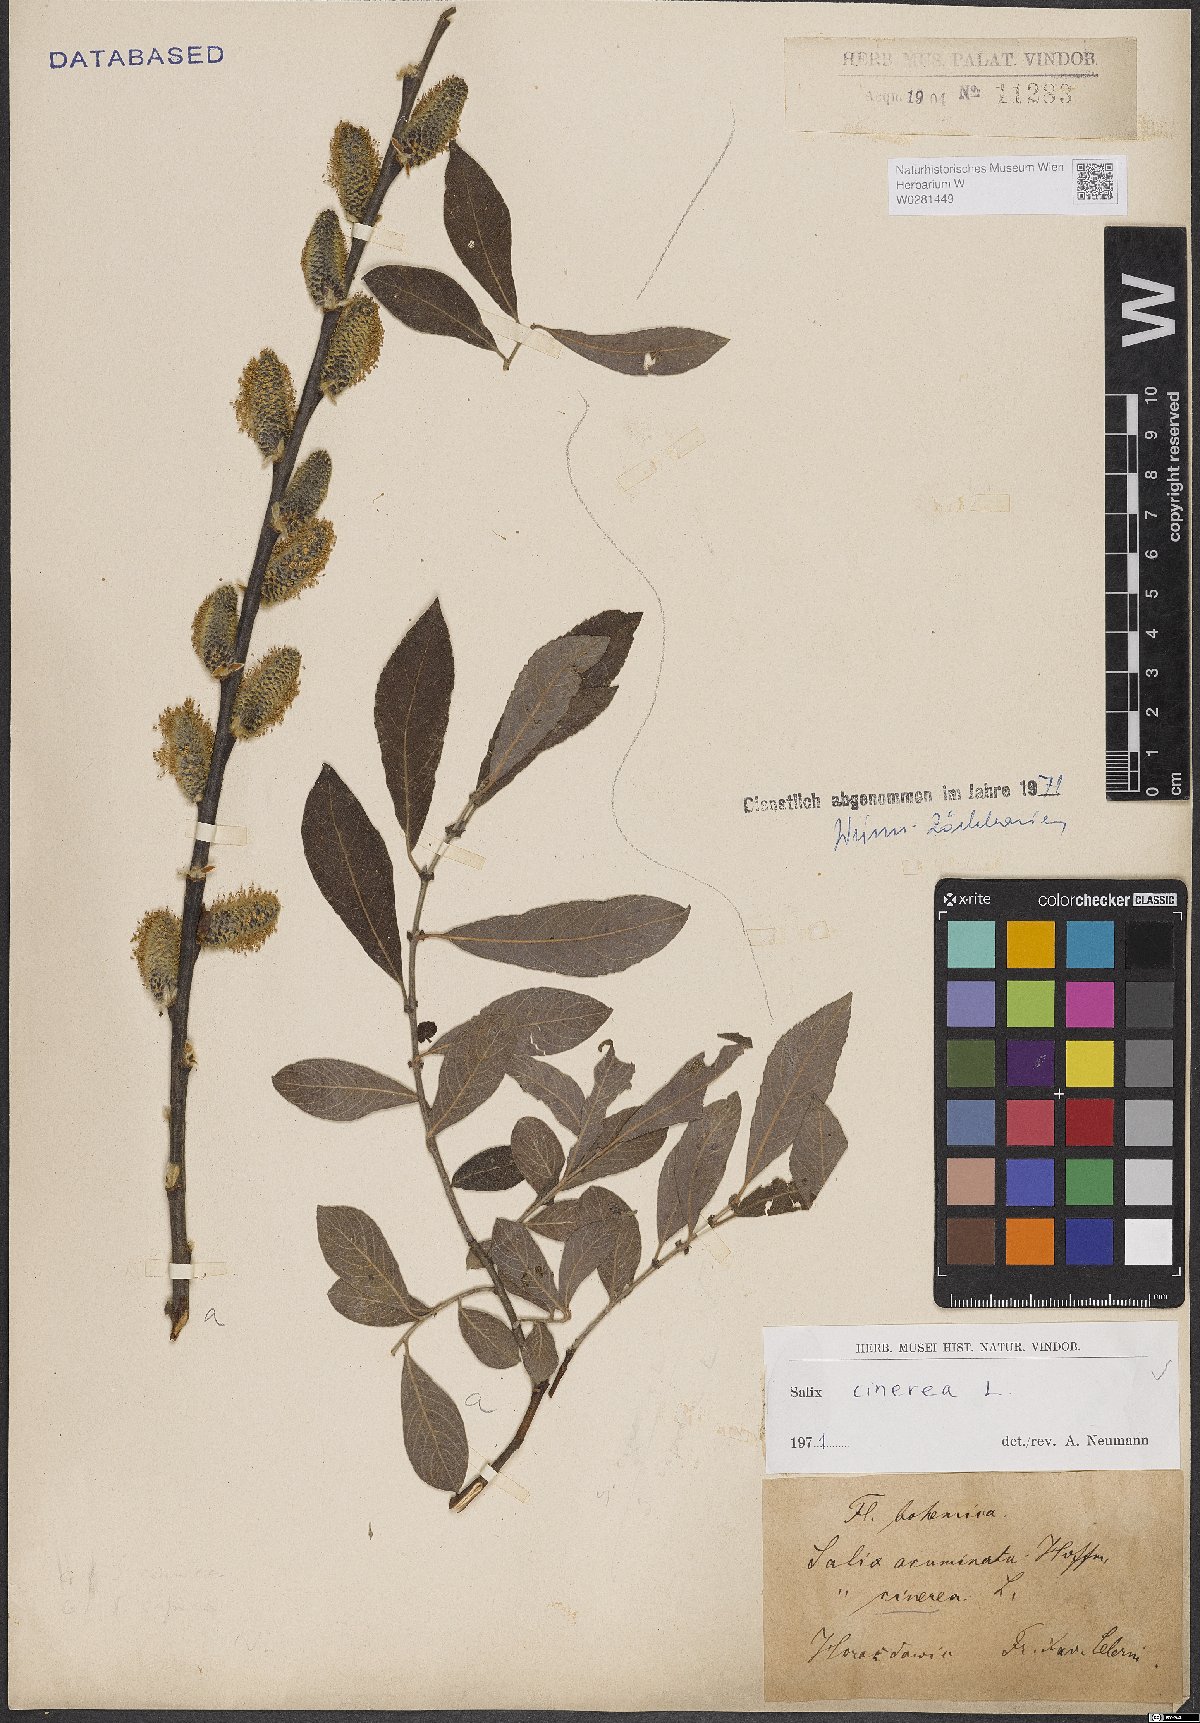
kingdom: Plantae
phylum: Tracheophyta
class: Magnoliopsida
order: Malpighiales
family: Salicaceae
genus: Salix
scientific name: Salix cinerea
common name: Common sallow
